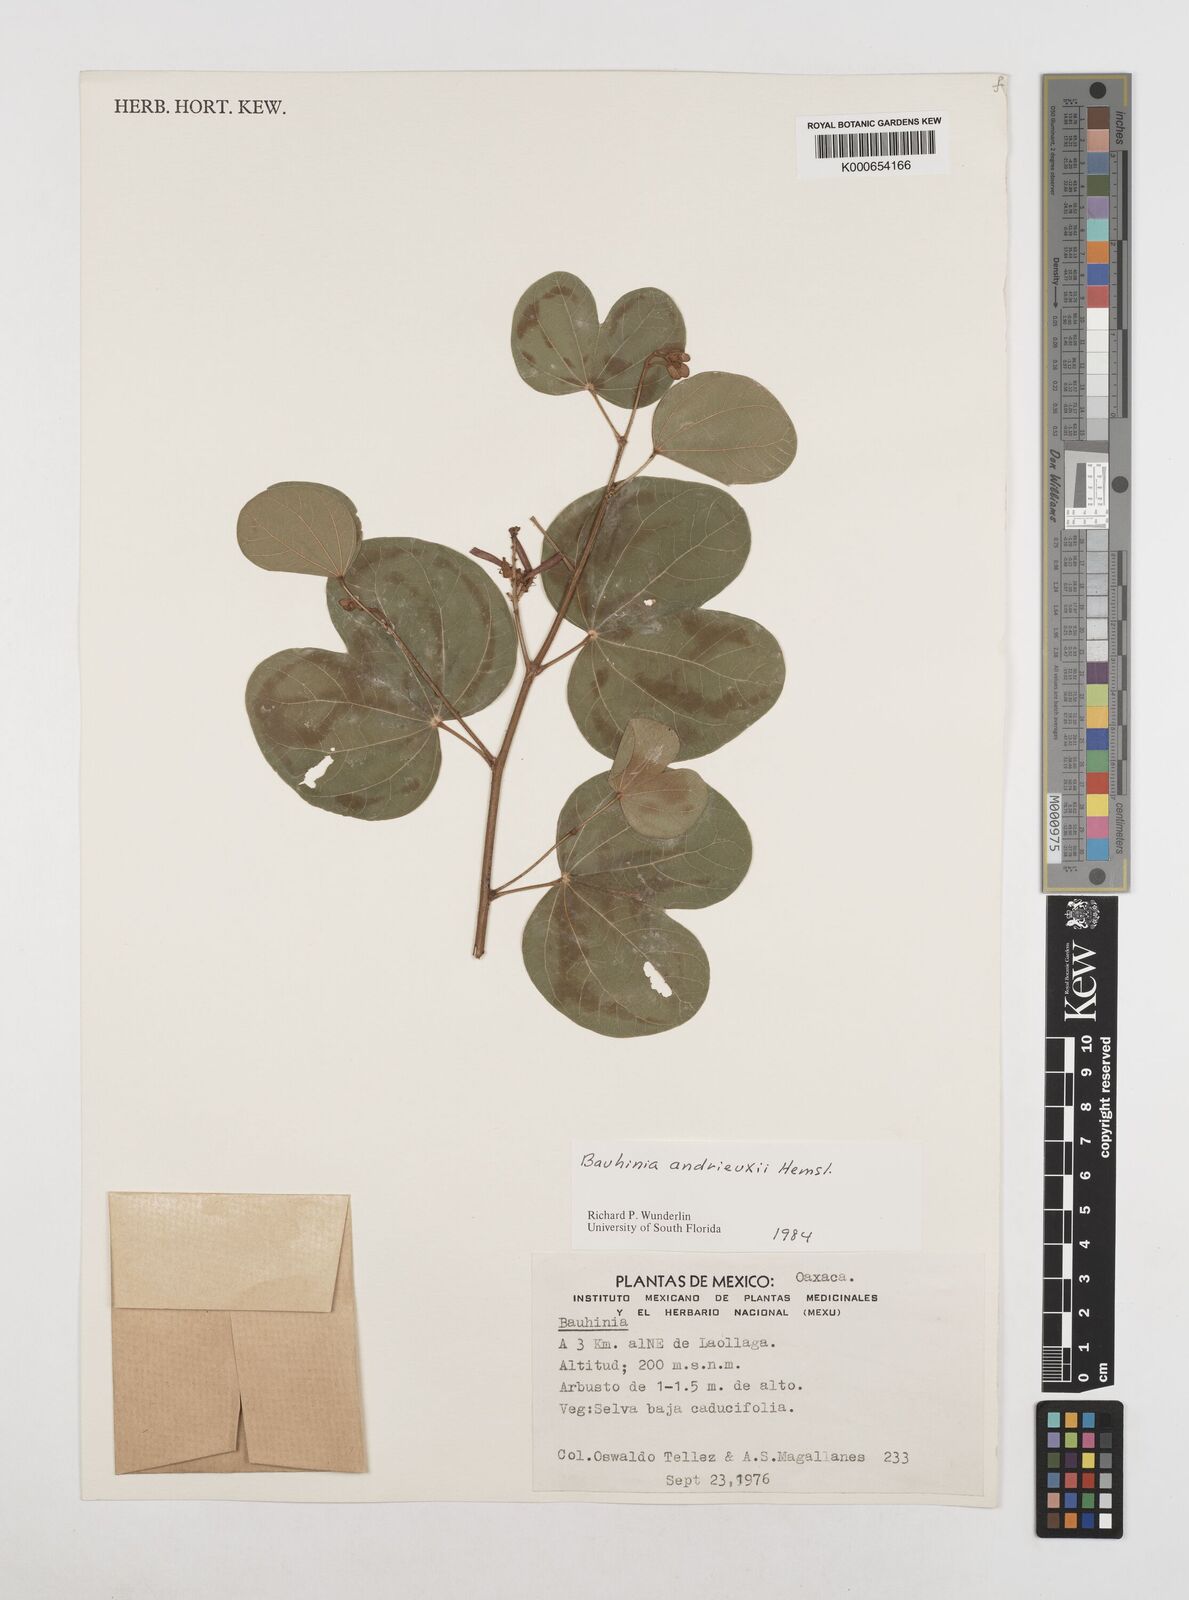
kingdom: Plantae
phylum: Tracheophyta
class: Magnoliopsida
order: Fabales
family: Fabaceae
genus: Bauhinia
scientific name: Bauhinia
